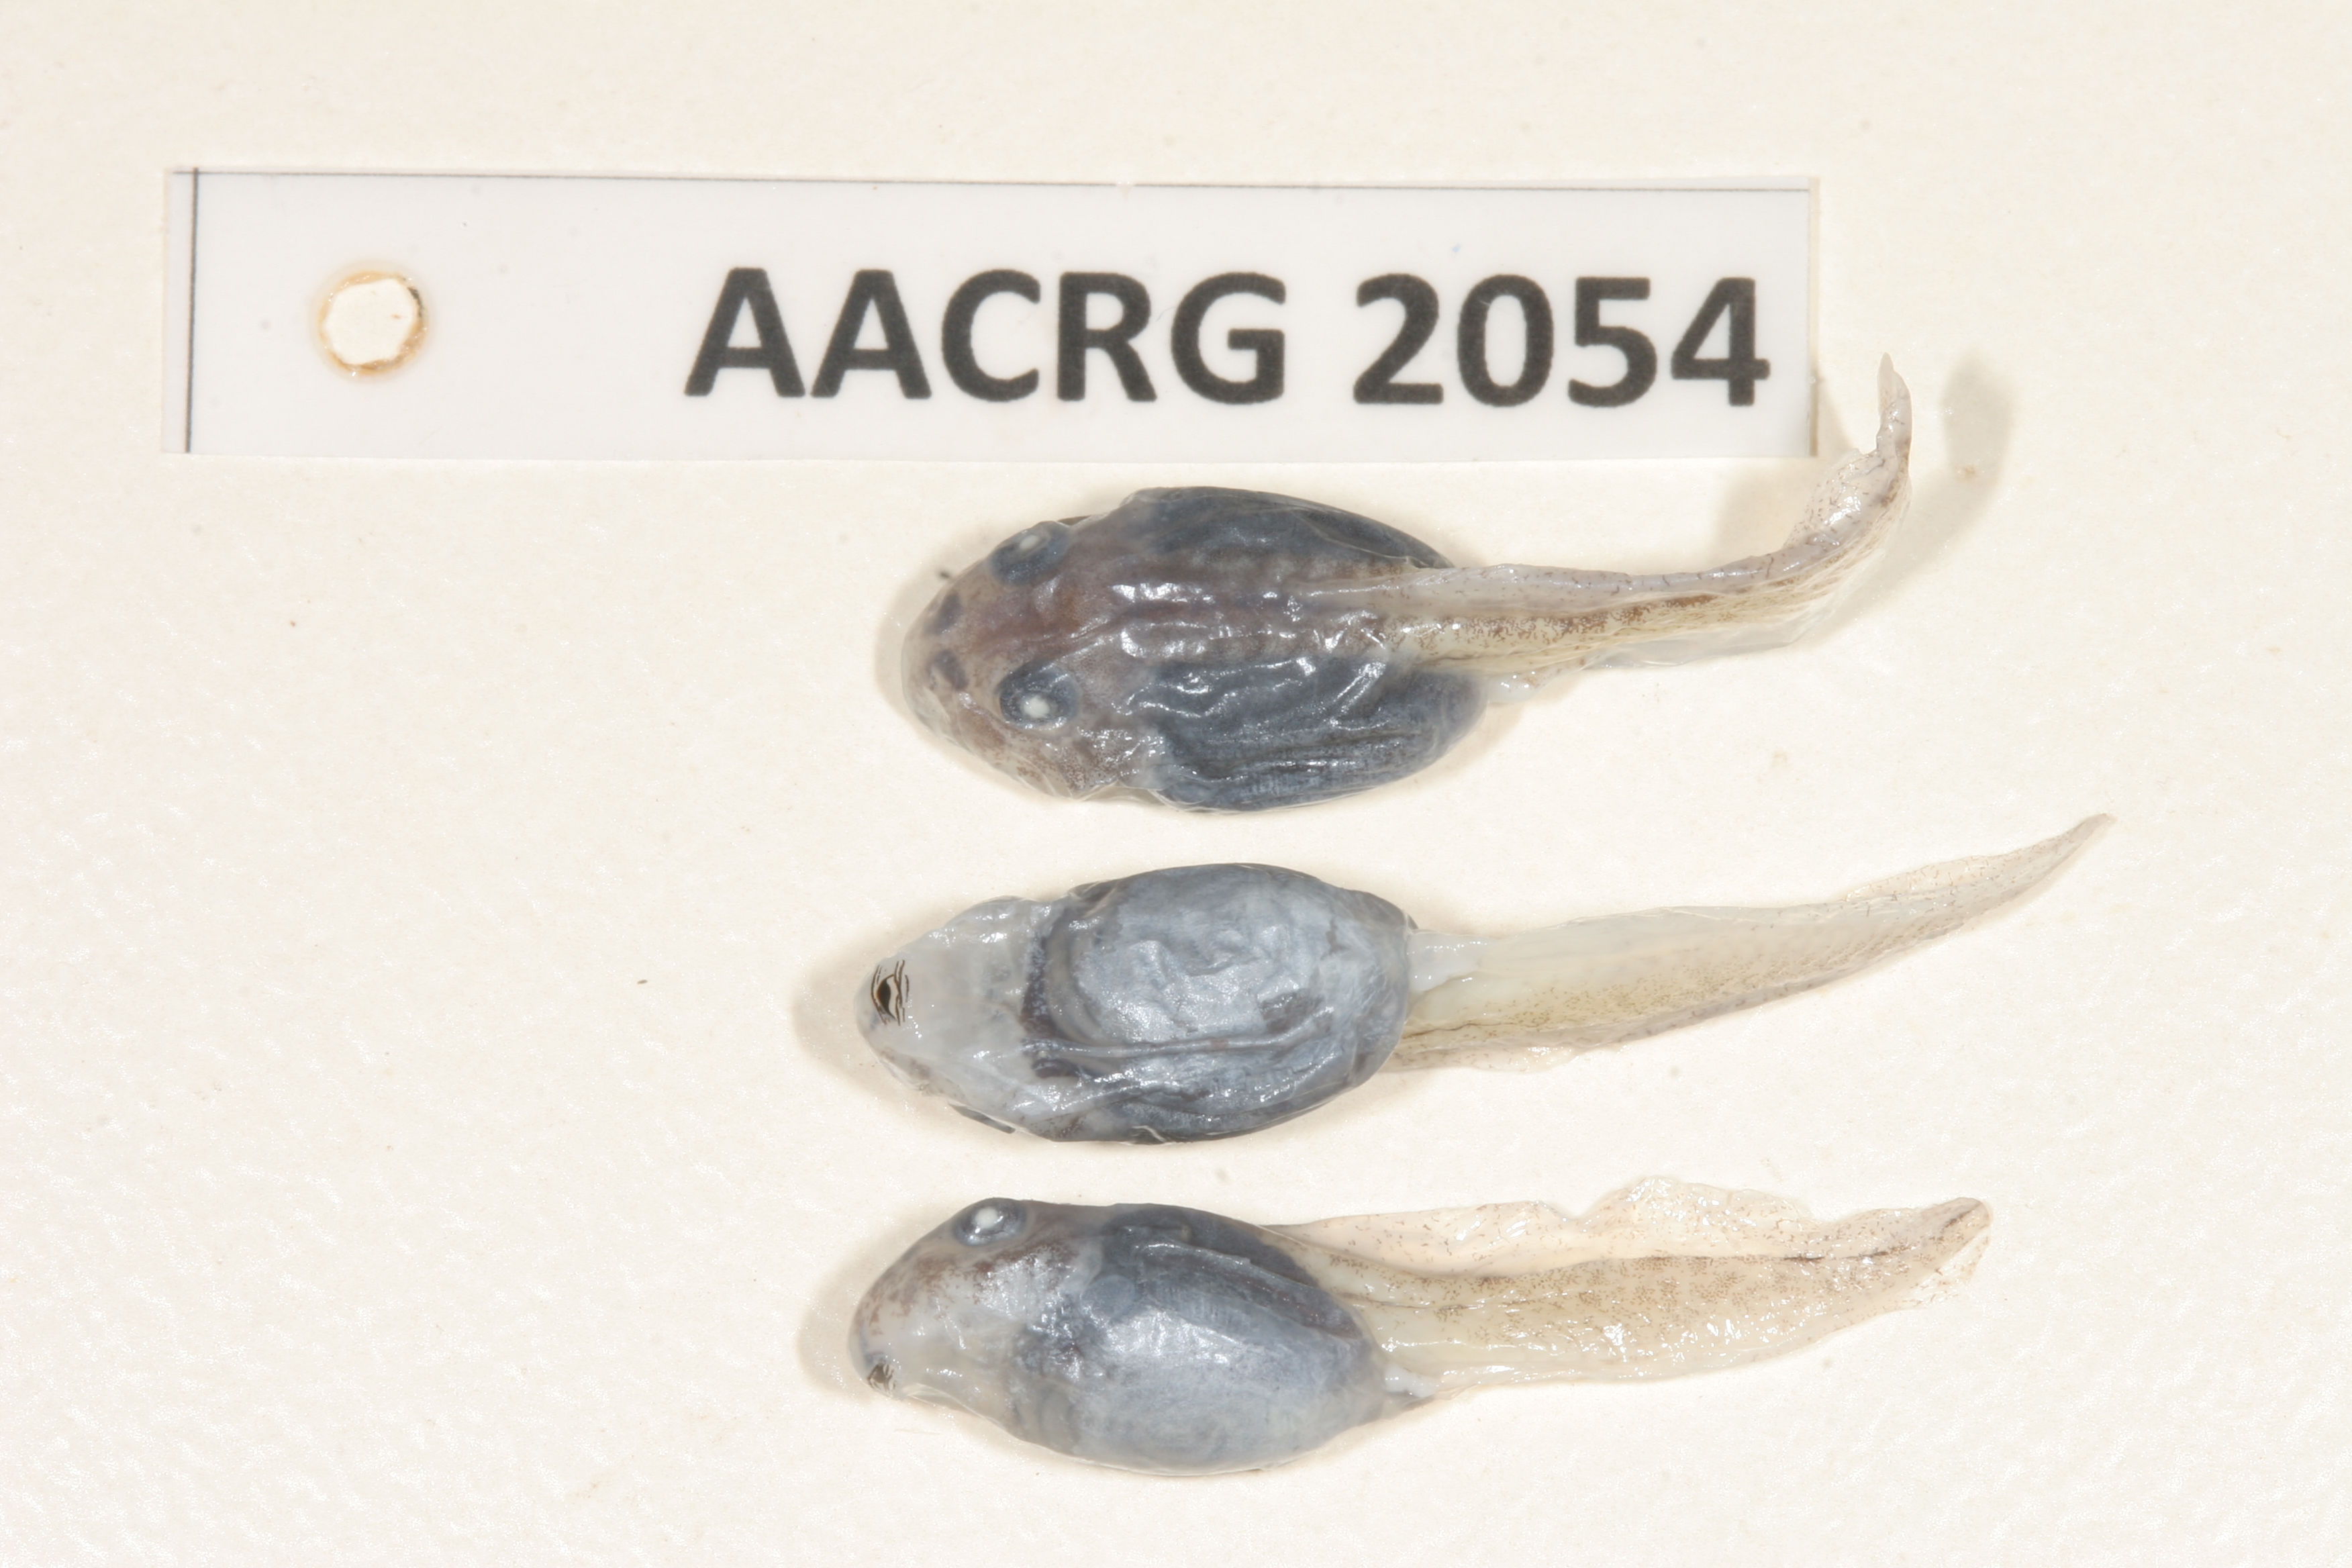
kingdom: Animalia
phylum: Chordata
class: Amphibia
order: Anura
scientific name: Anura
